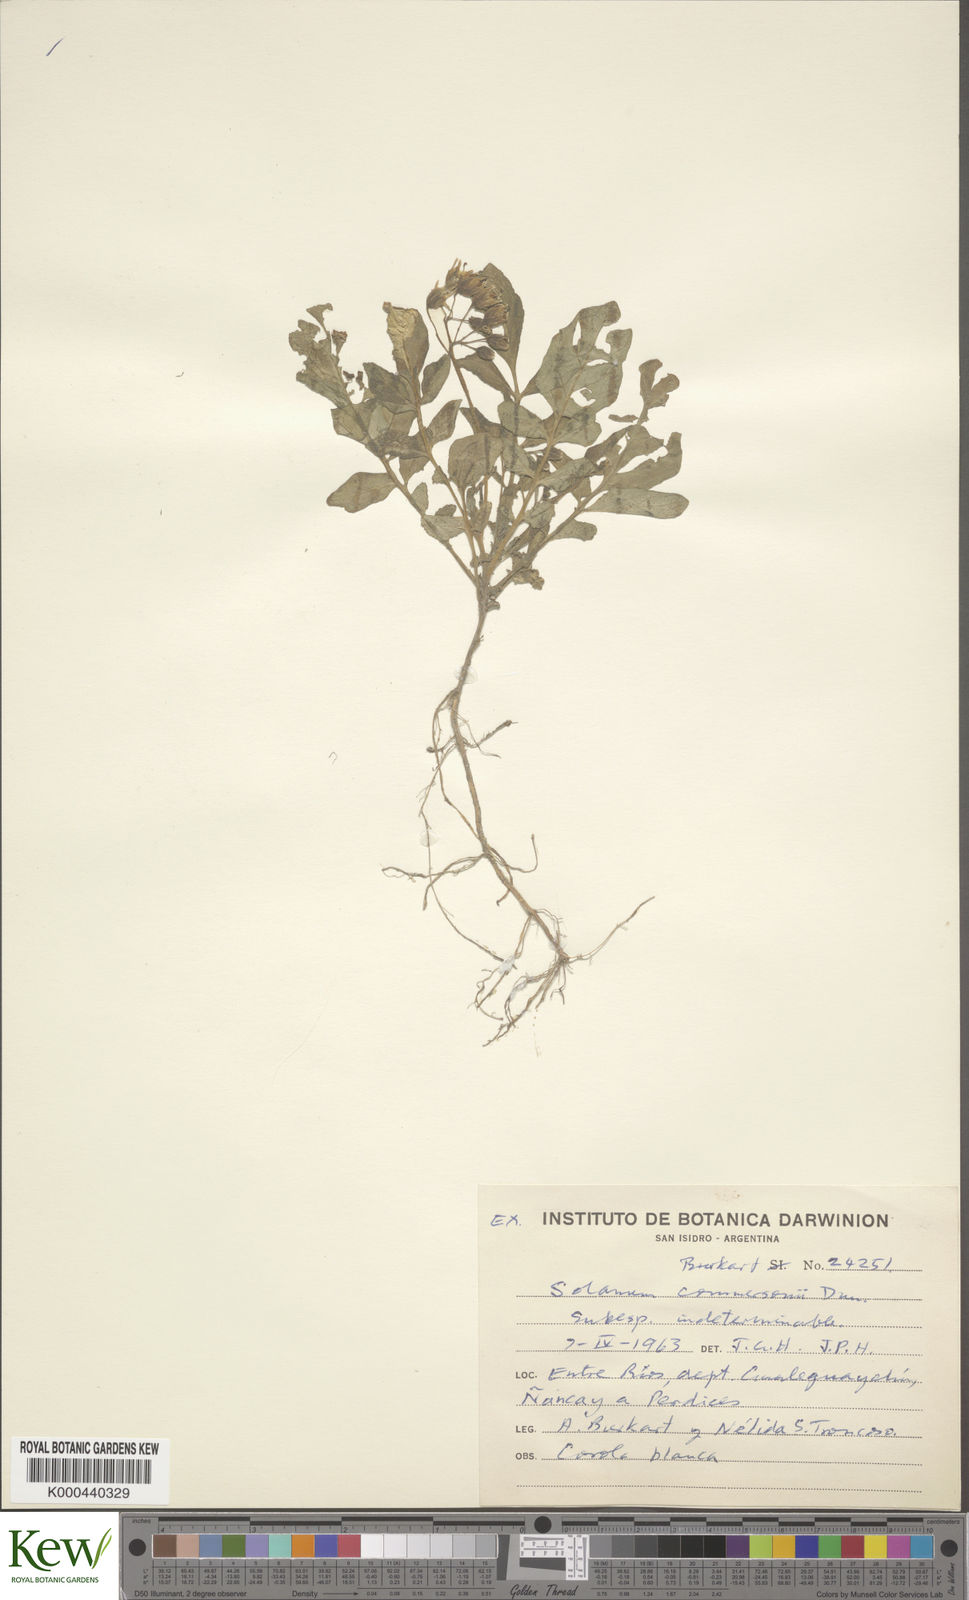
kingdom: Plantae
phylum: Tracheophyta
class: Magnoliopsida
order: Solanales
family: Solanaceae
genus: Solanum
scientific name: Solanum commersonii
